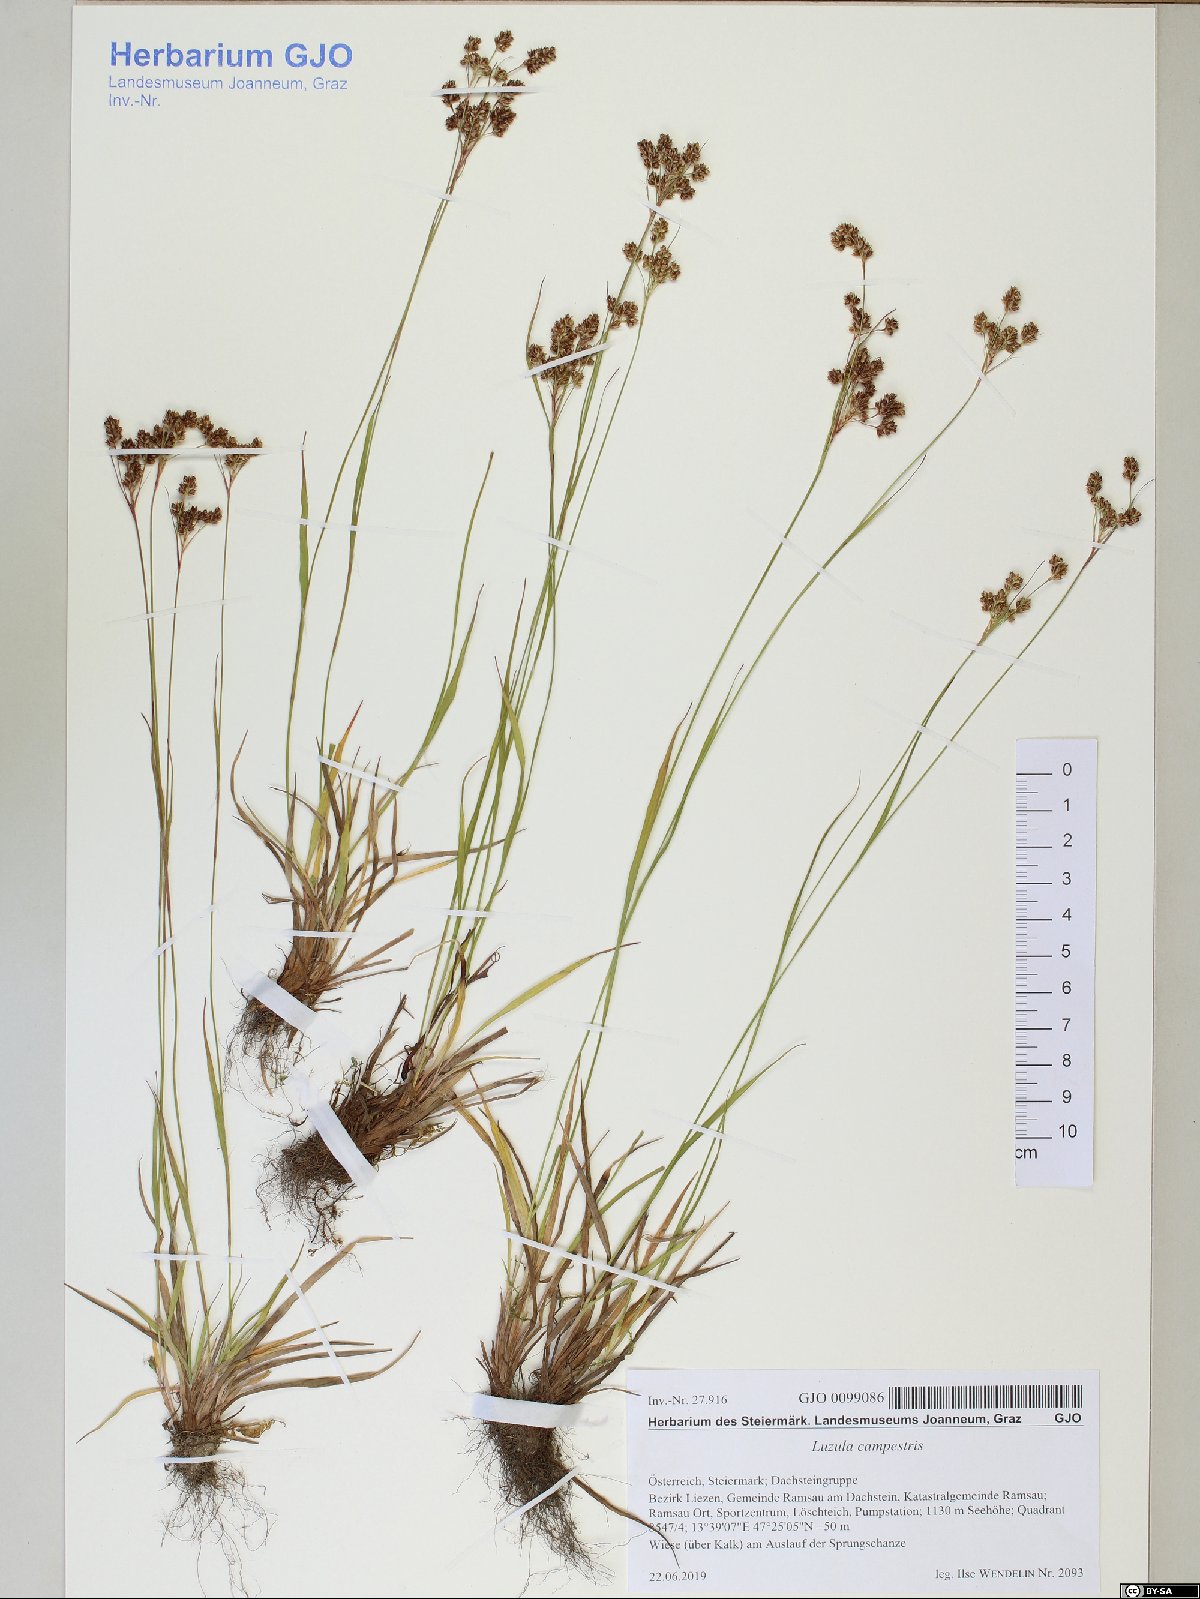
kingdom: Plantae
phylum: Tracheophyta
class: Liliopsida
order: Poales
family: Juncaceae
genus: Luzula
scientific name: Luzula campestris
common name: Field wood-rush
